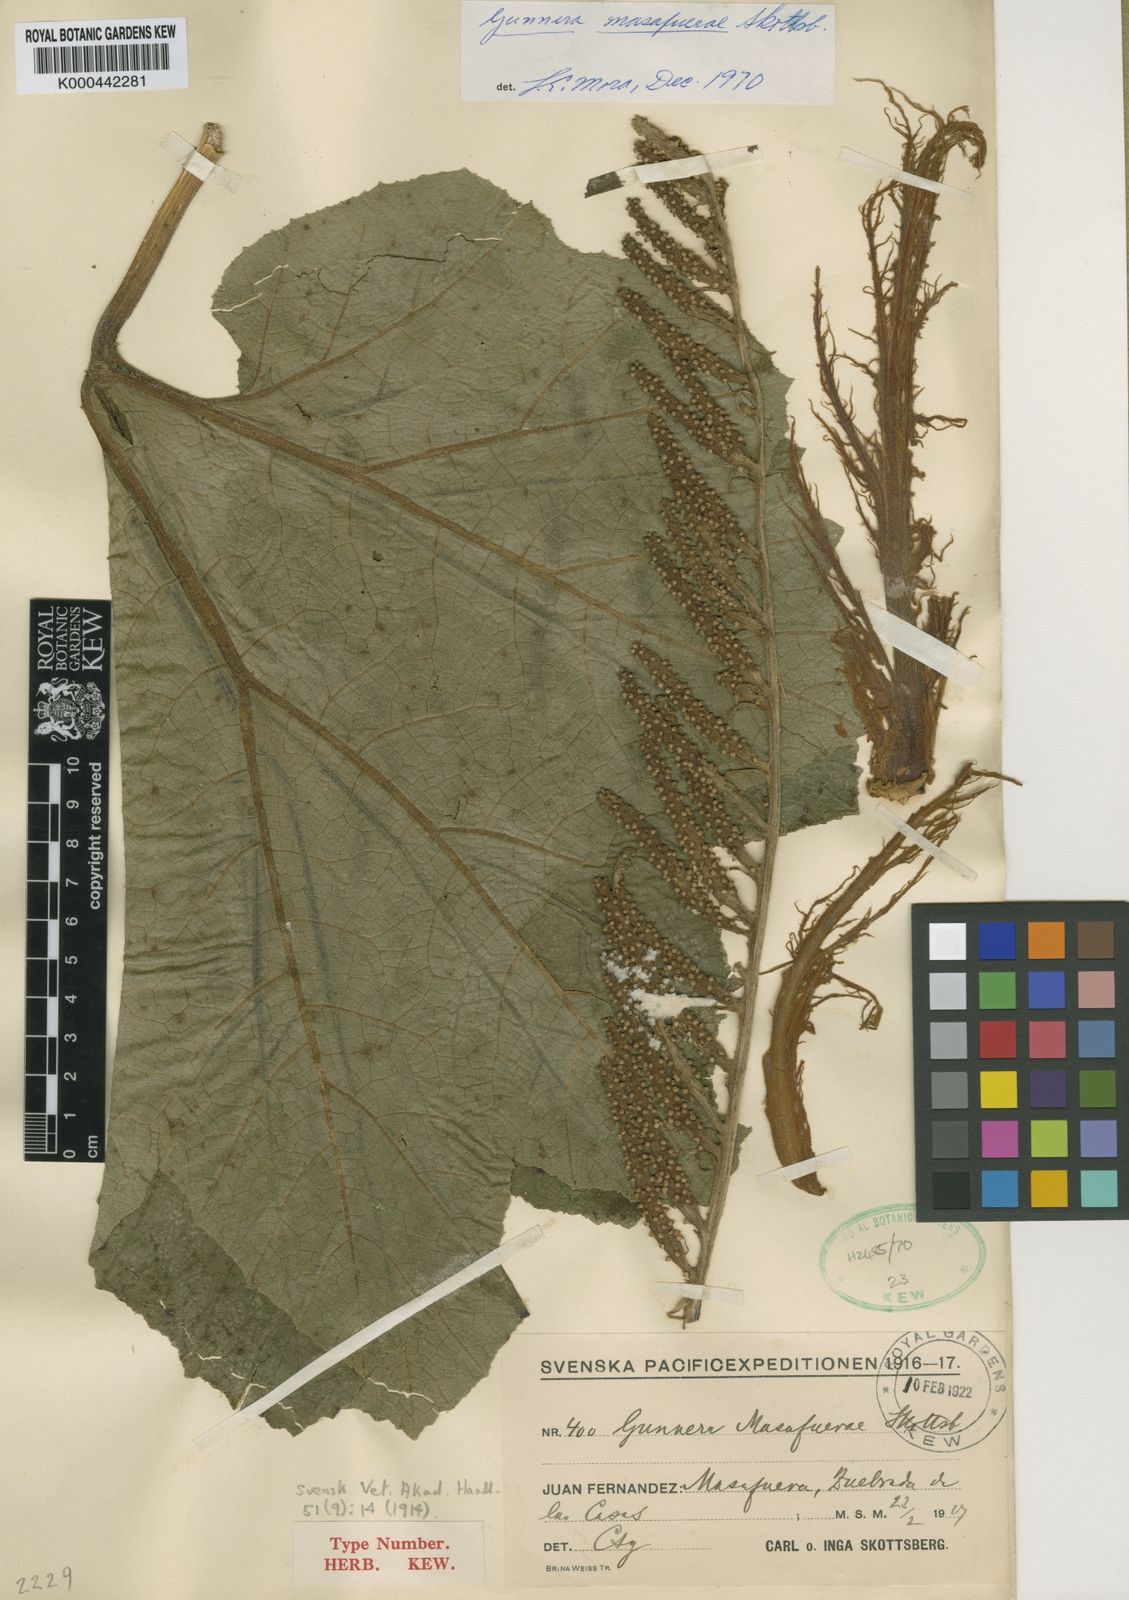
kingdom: Plantae
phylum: Tracheophyta
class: Magnoliopsida
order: Gunnerales
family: Gunneraceae
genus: Gunnera
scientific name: Gunnera masafuerae
